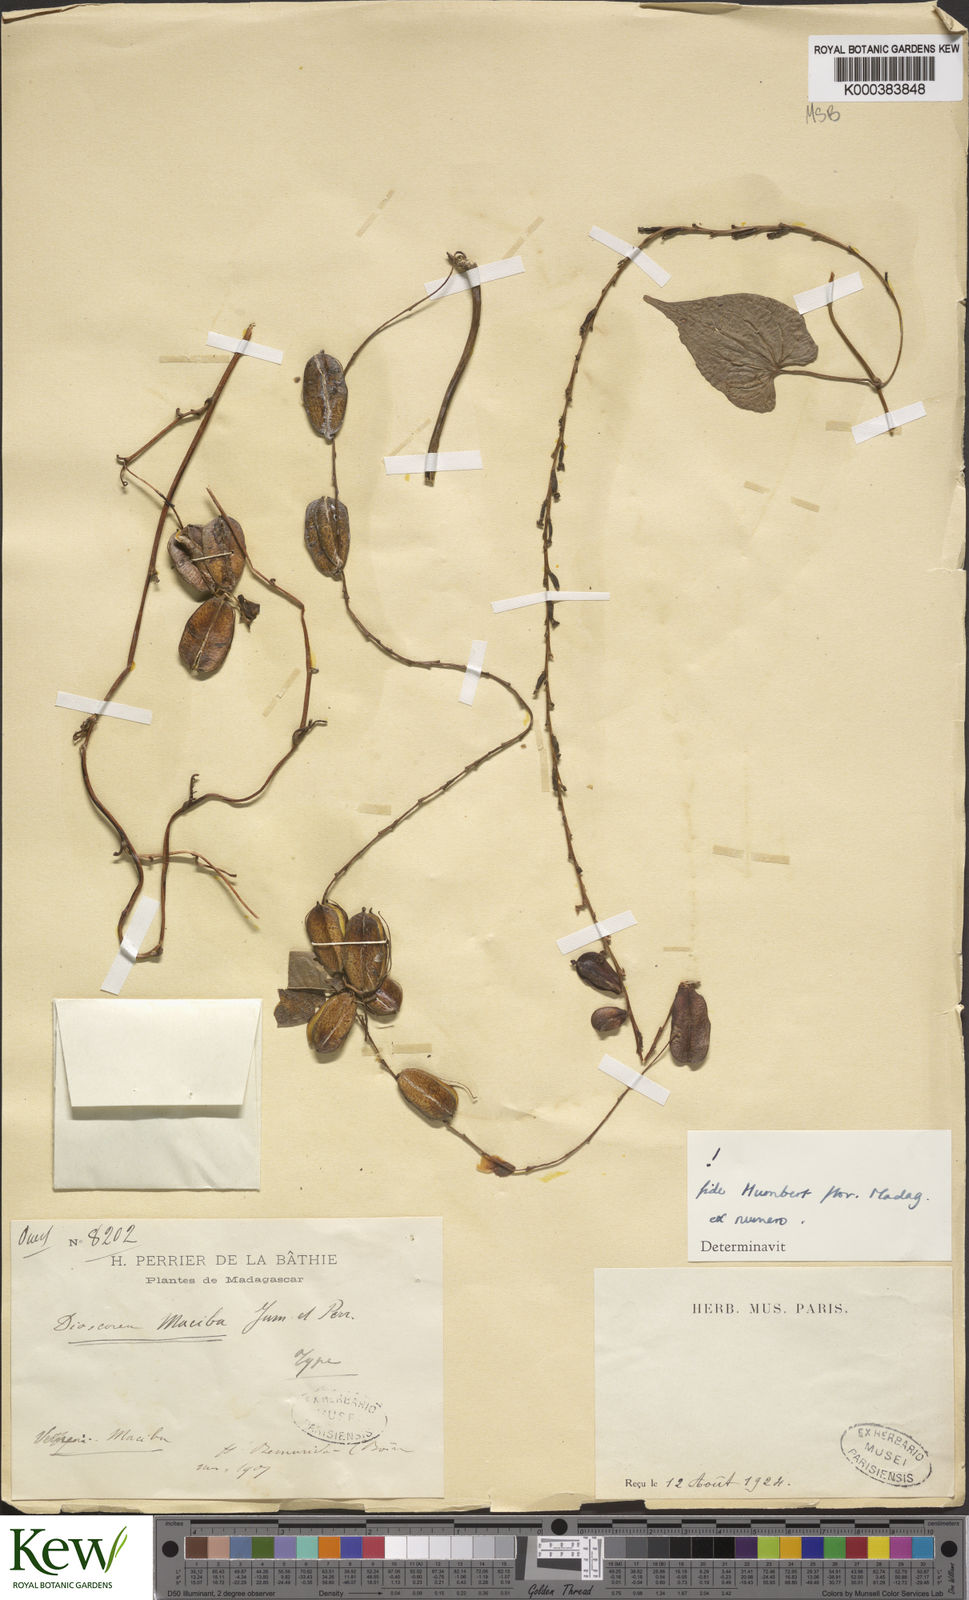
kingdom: Plantae
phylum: Tracheophyta
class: Liliopsida
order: Dioscoreales
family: Dioscoreaceae
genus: Dioscorea
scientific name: Dioscorea
